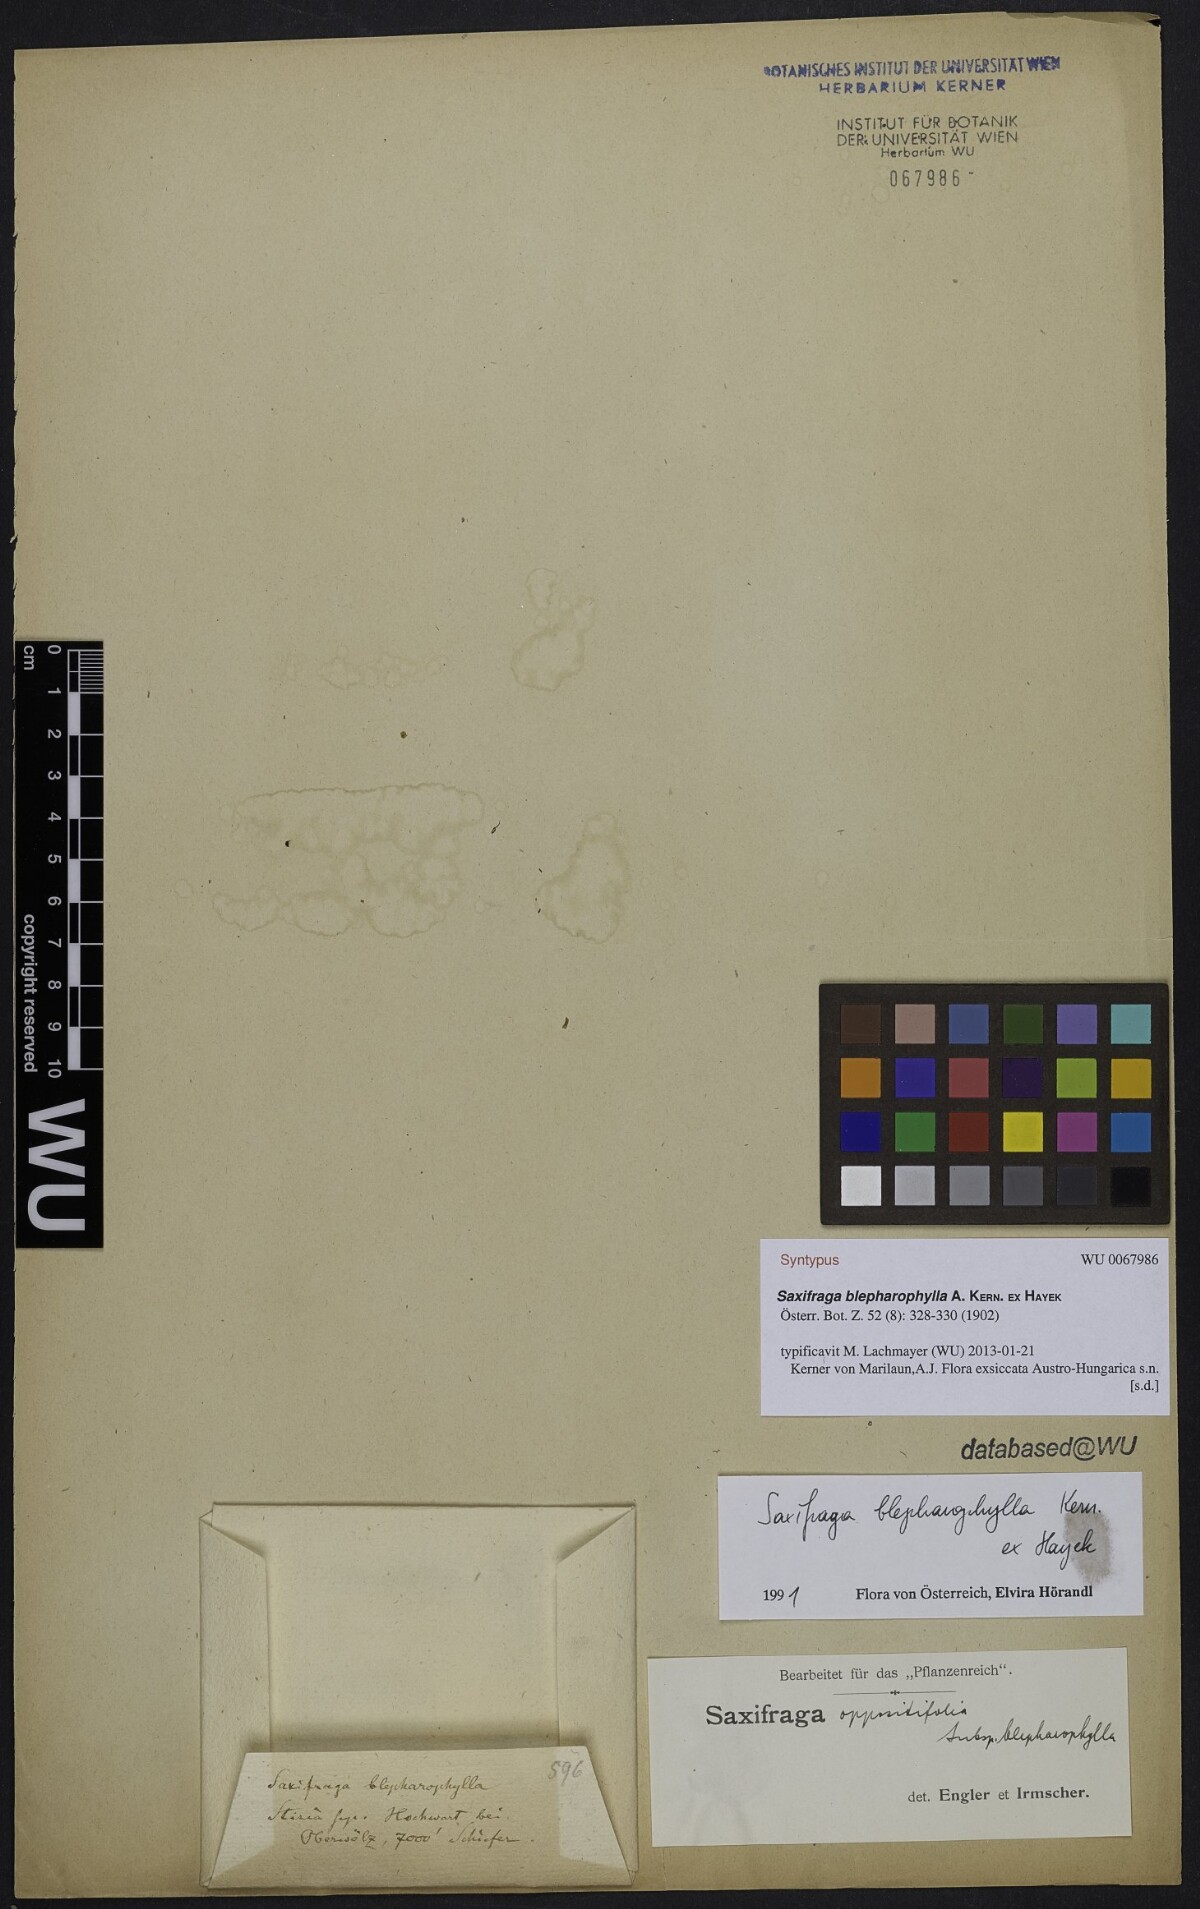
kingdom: Plantae
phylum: Tracheophyta
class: Magnoliopsida
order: Saxifragales
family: Saxifragaceae
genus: Saxifraga
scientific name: Saxifraga oppositifolia
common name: Purple saxifrage
